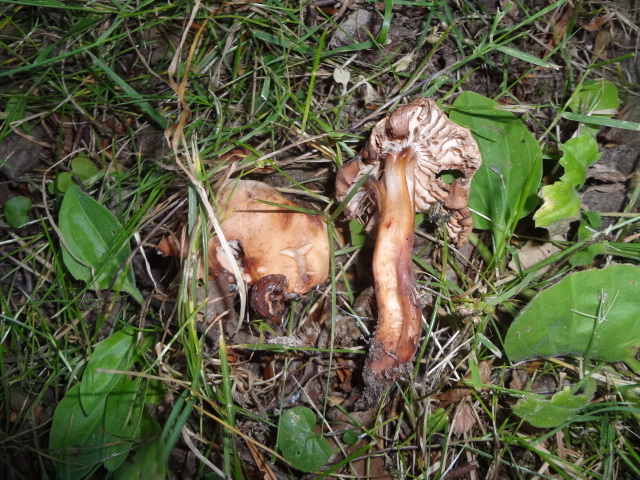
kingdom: Fungi
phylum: Basidiomycota
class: Agaricomycetes
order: Agaricales
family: Omphalotaceae
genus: Gymnopus
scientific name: Gymnopus fusipes
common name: tenstokket fladhat
